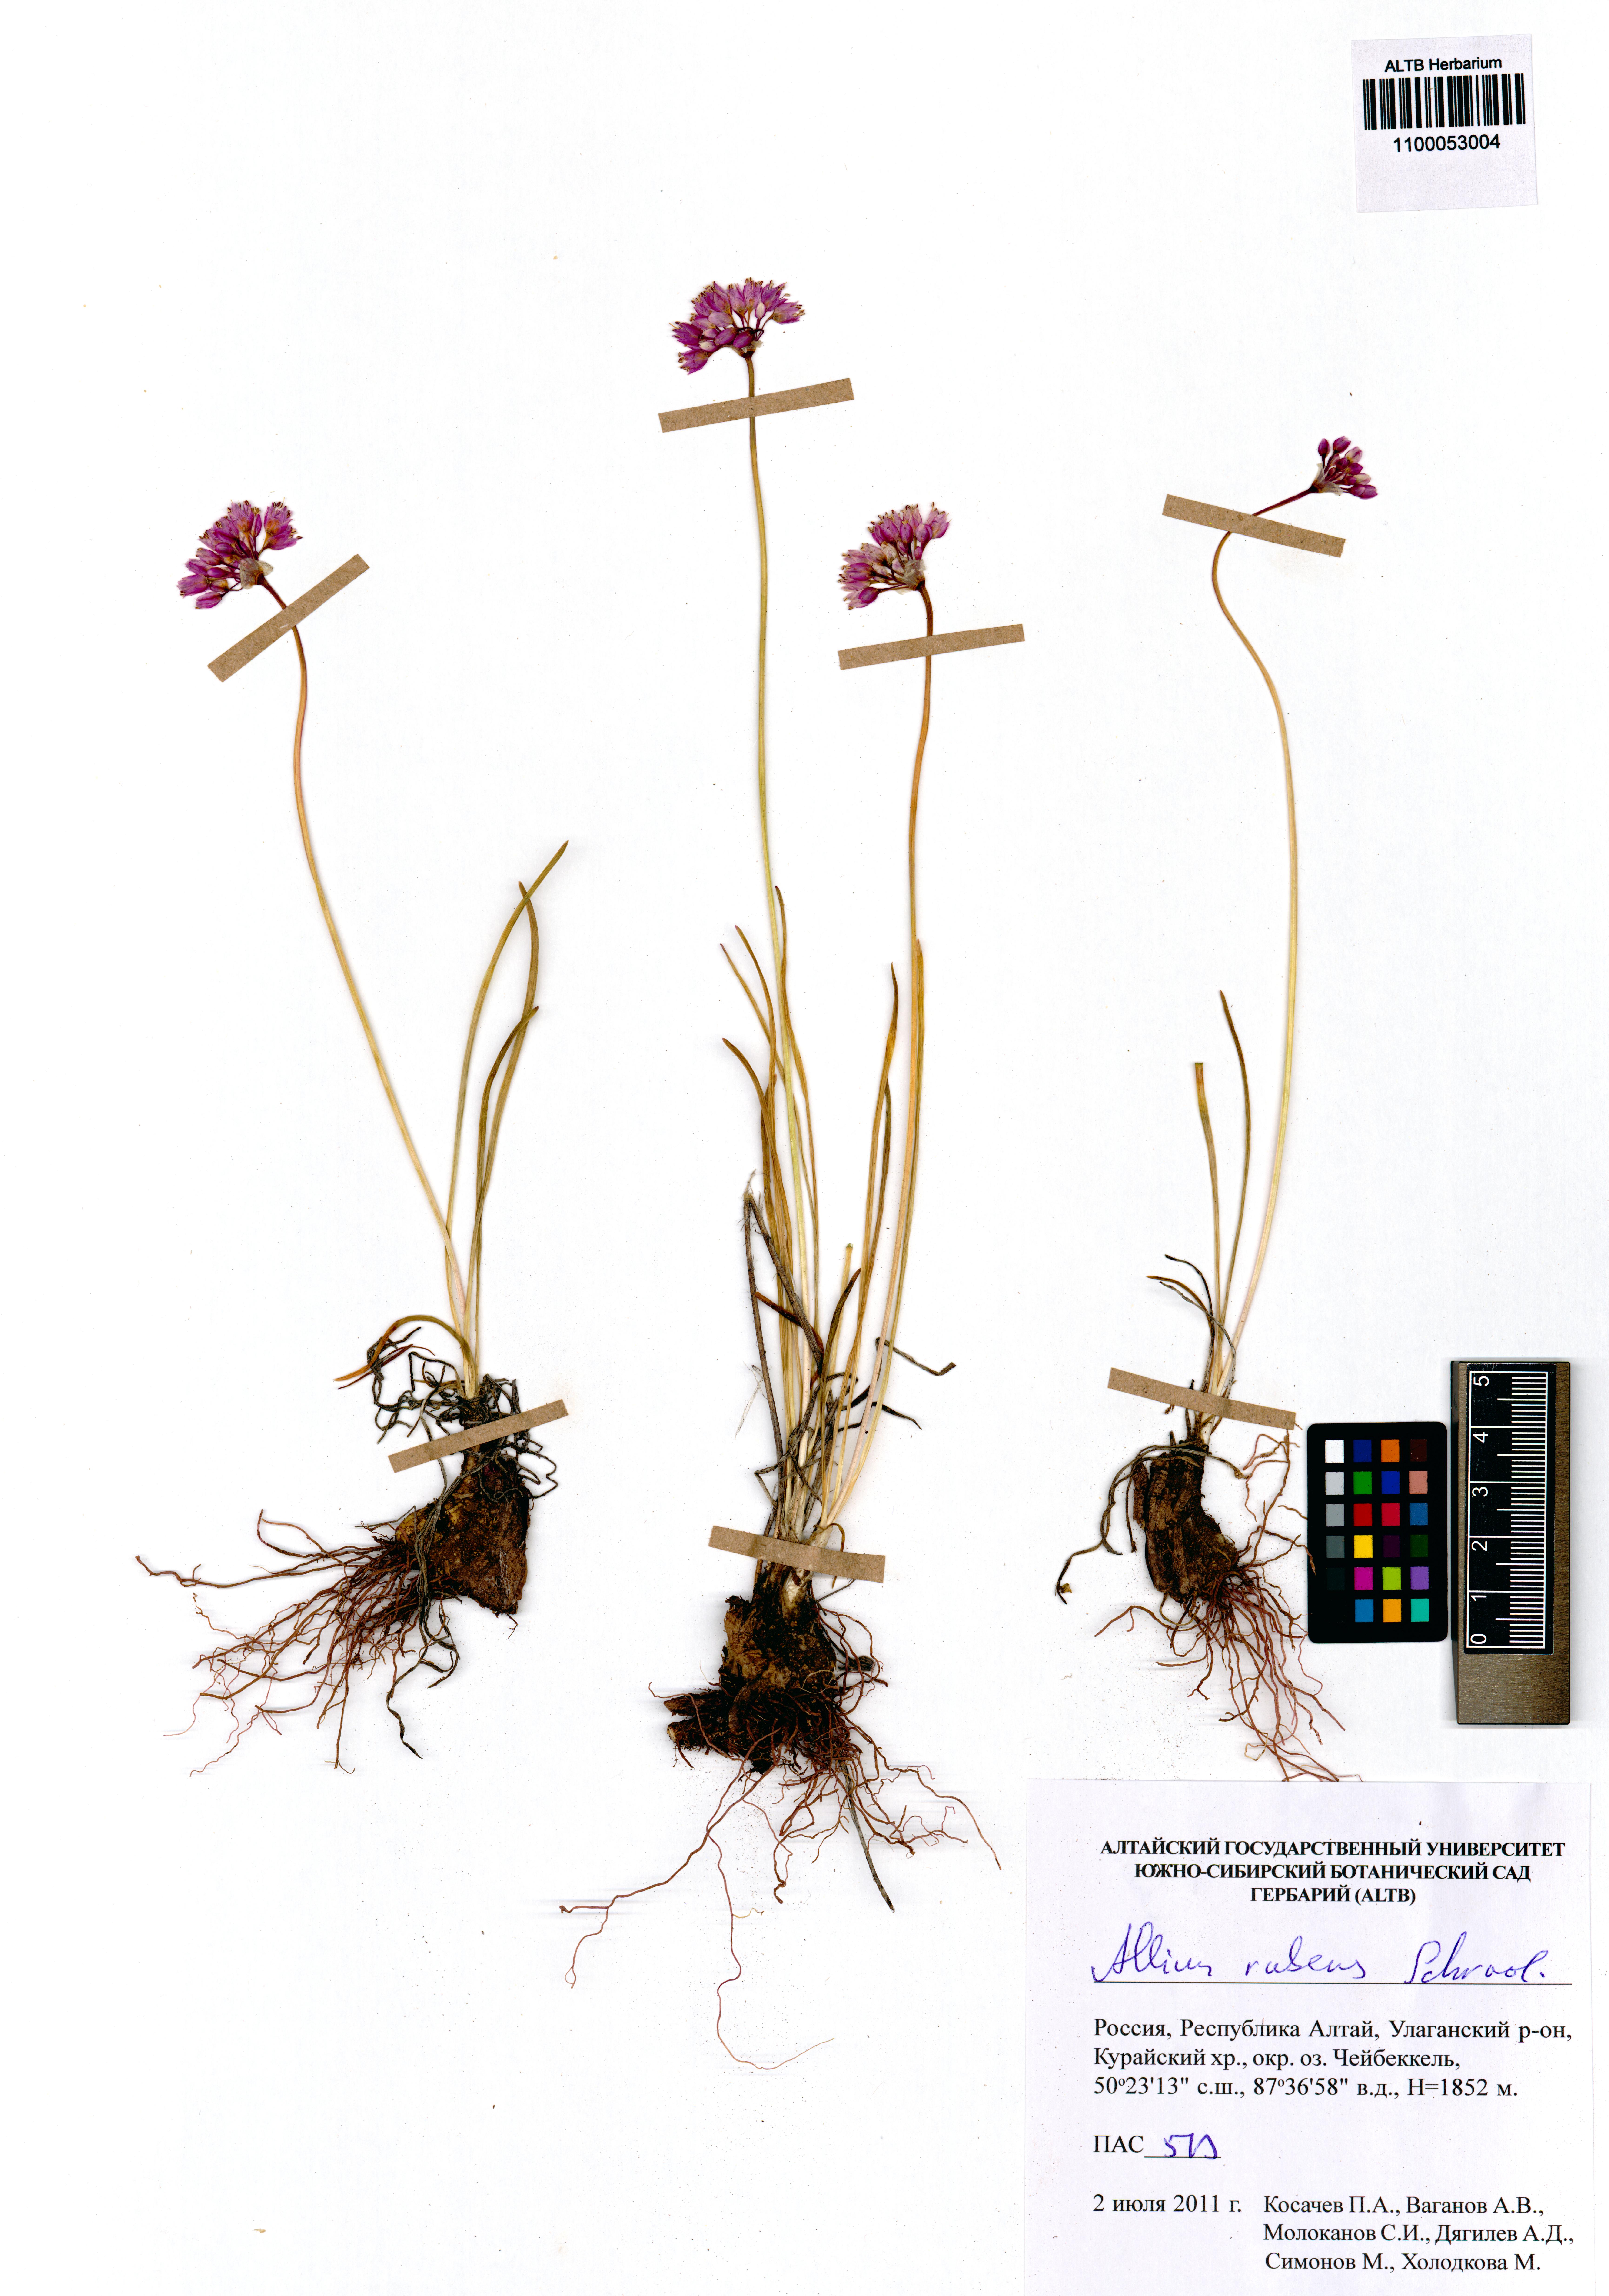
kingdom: Plantae
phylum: Tracheophyta
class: Liliopsida
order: Asparagales
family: Amaryllidaceae
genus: Allium
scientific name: Allium rubens
